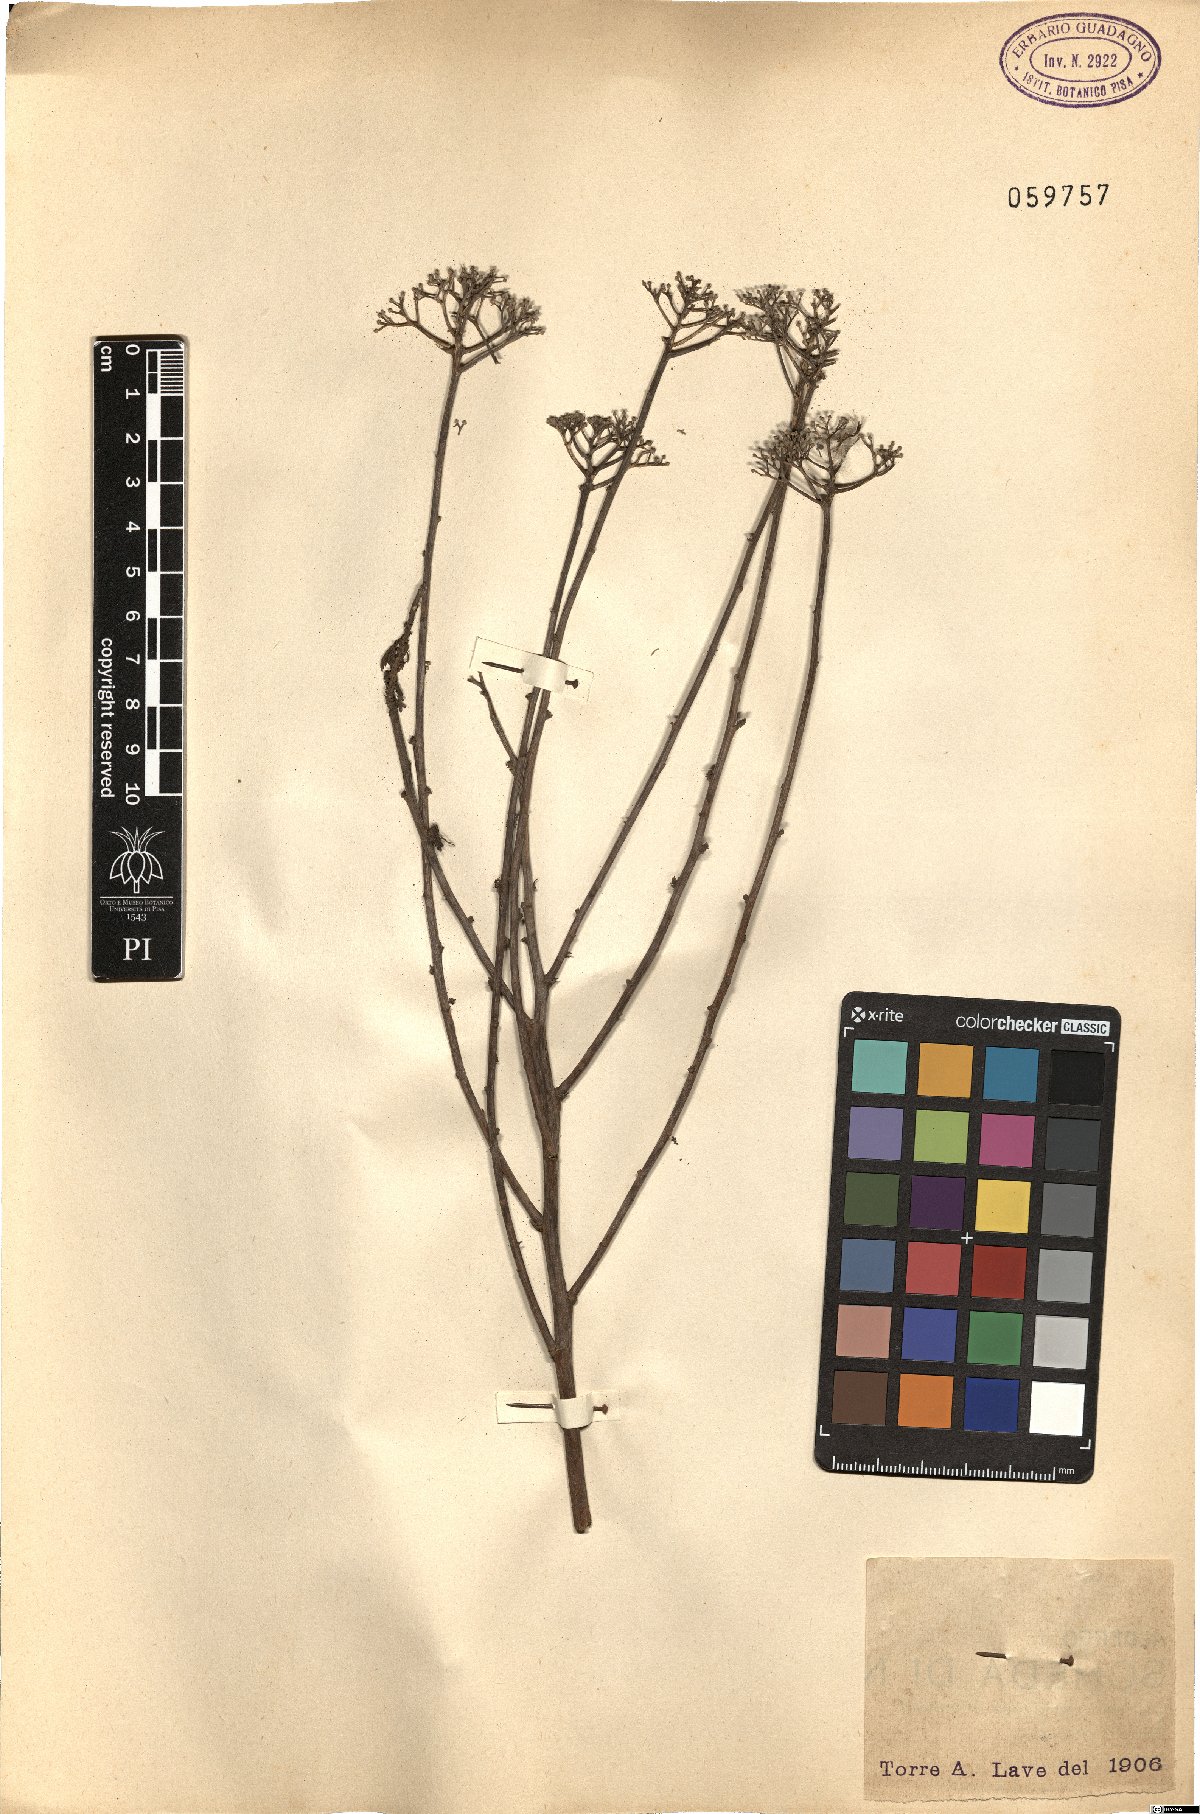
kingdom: Plantae
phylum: Tracheophyta
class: Magnoliopsida
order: Asterales
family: Asteraceae
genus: Achillea
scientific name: Achillea
